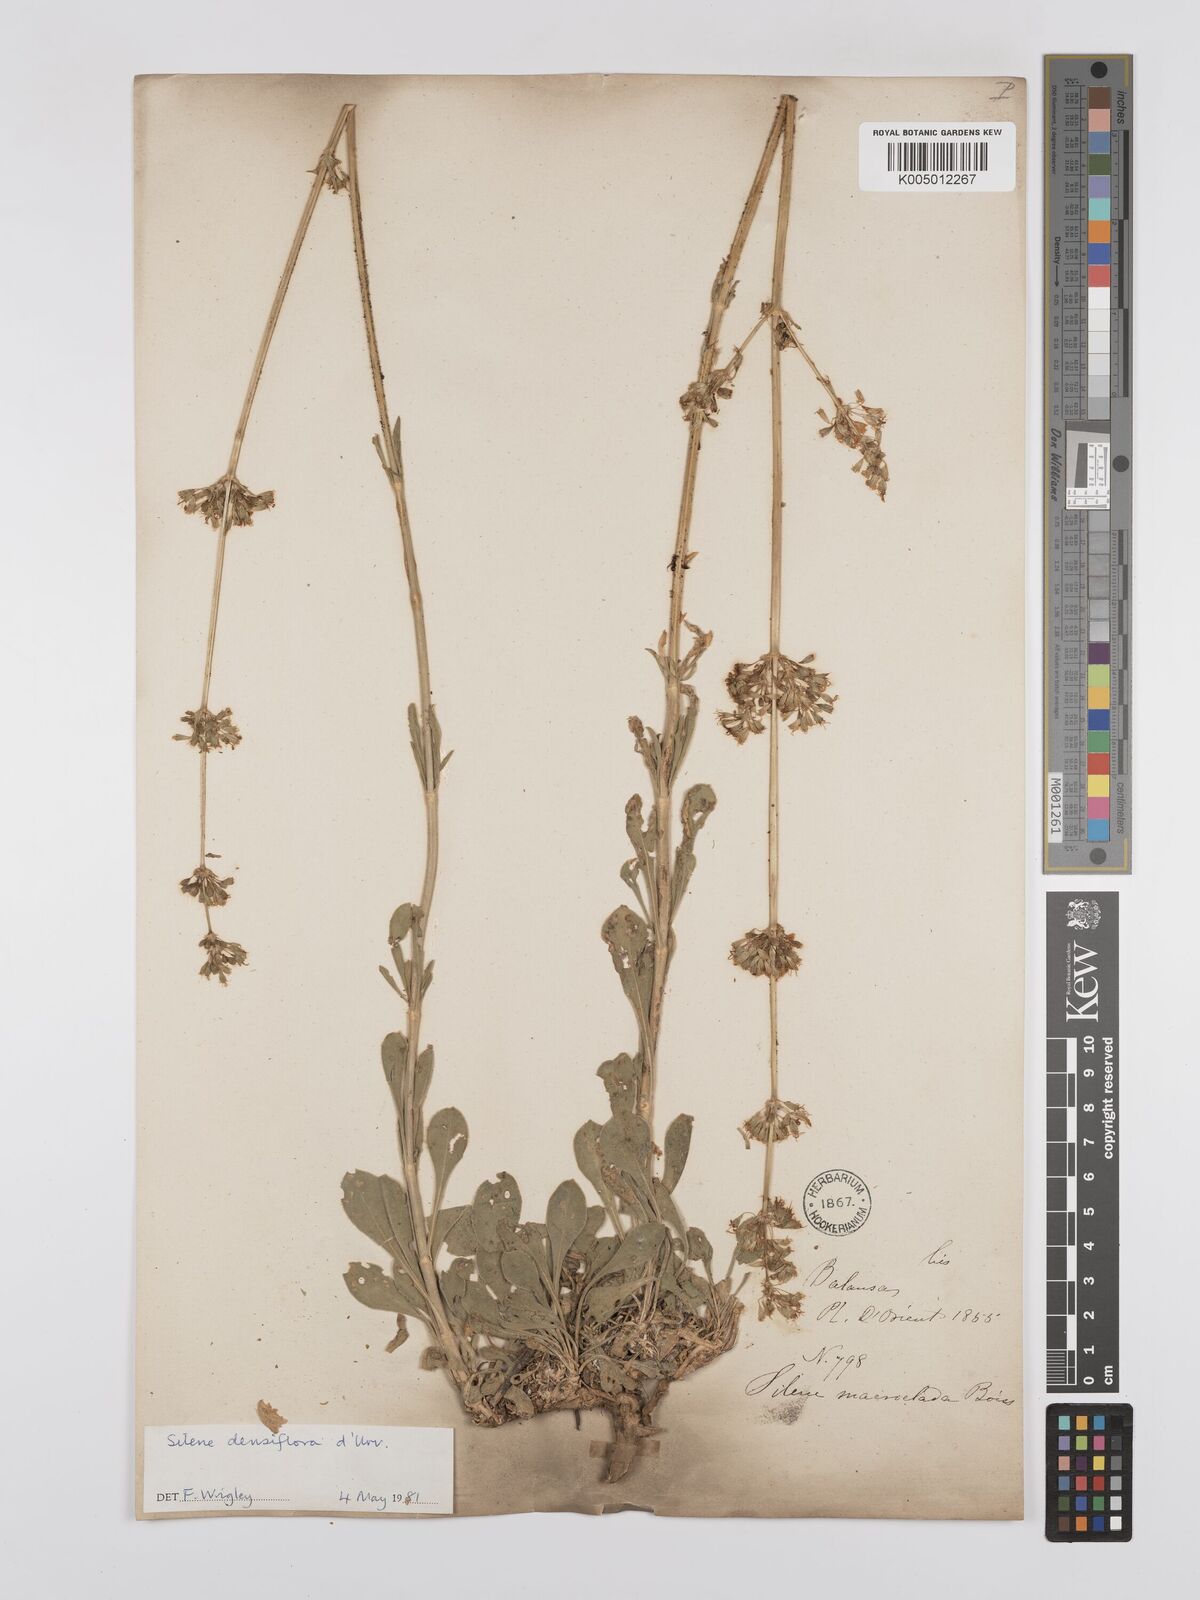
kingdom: Plantae
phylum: Tracheophyta
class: Magnoliopsida
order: Caryophyllales
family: Caryophyllaceae
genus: Silene
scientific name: Silene densiflora
